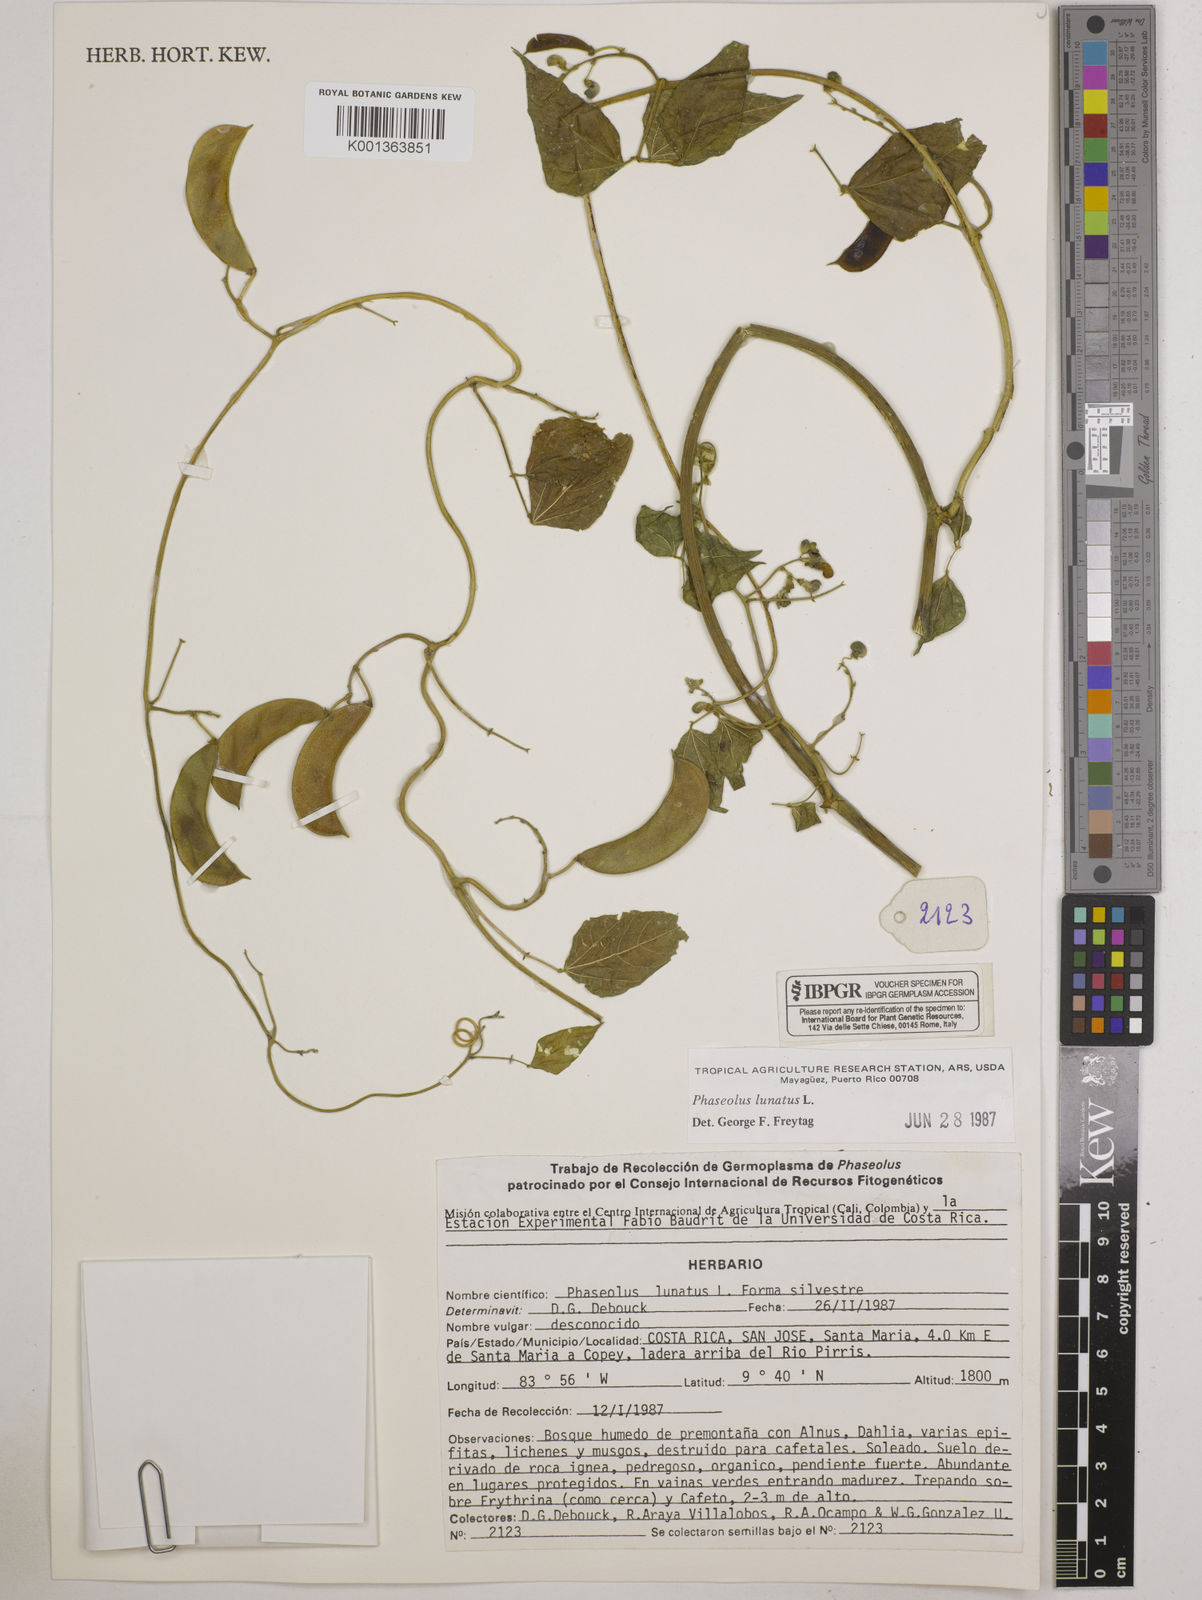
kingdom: Plantae
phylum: Tracheophyta
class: Magnoliopsida
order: Fabales
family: Fabaceae
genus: Phaseolus
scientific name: Phaseolus lunatus
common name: Sieva bean
